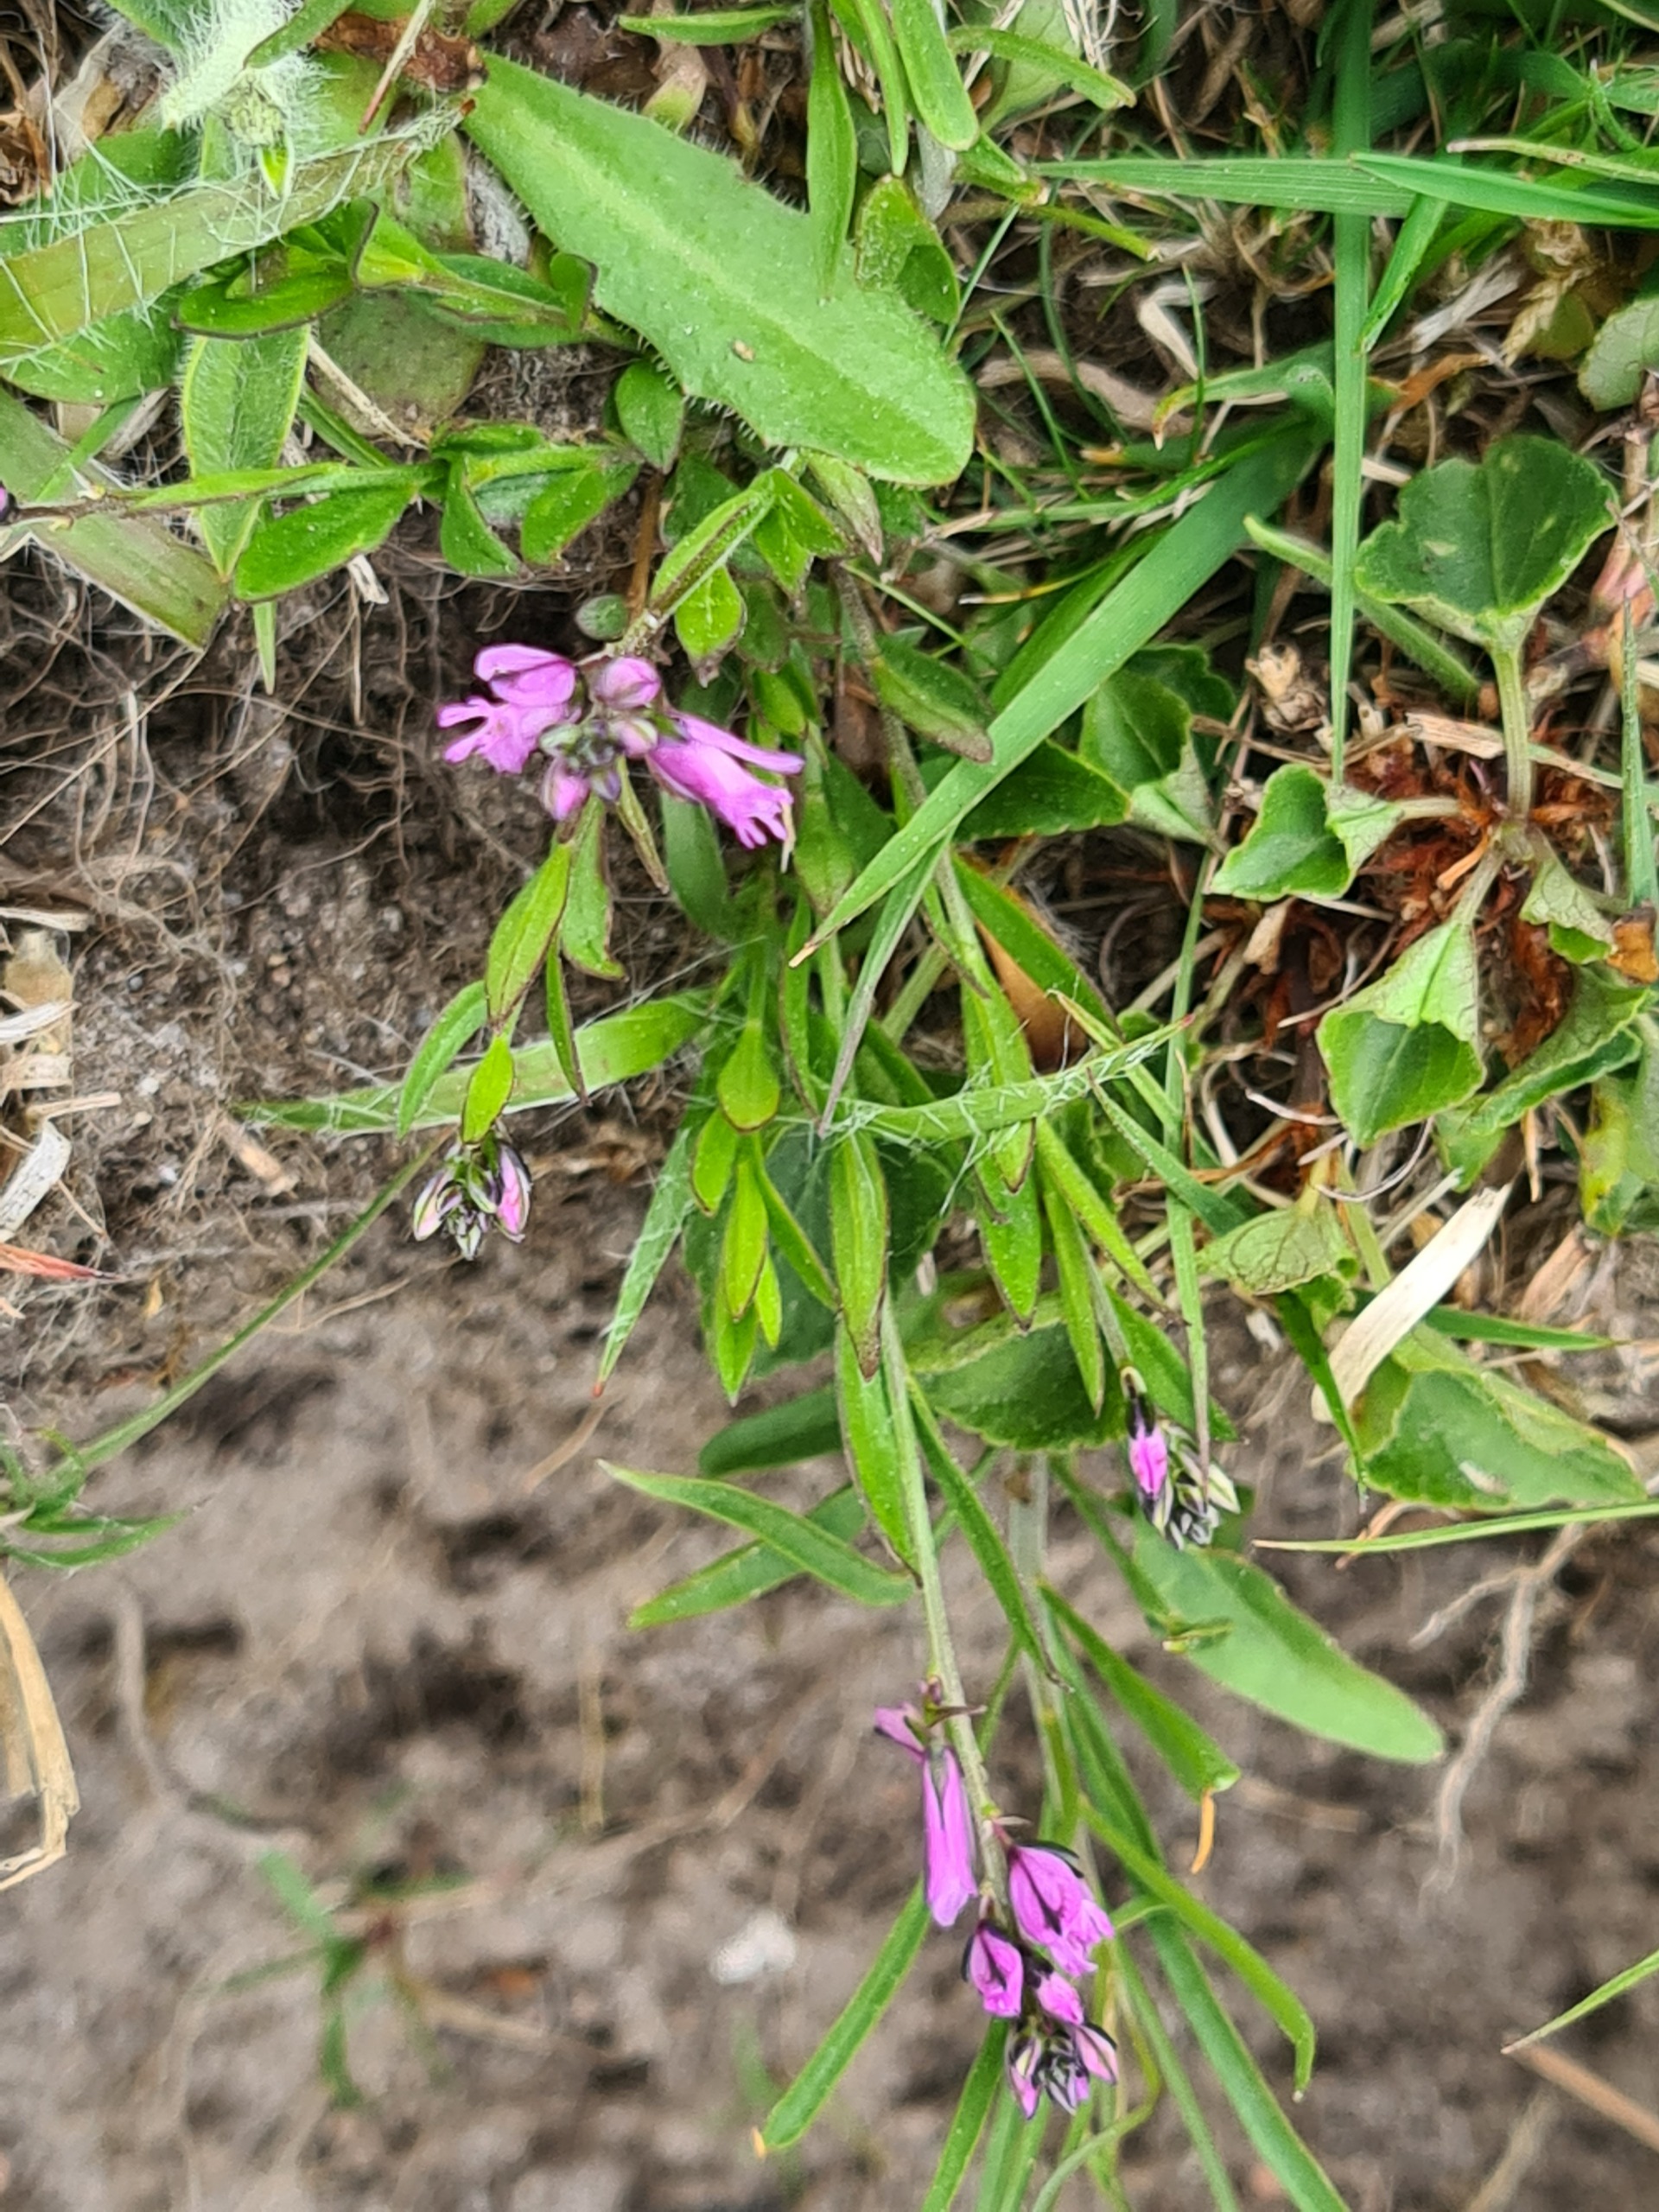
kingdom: Plantae
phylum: Tracheophyta
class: Magnoliopsida
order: Fabales
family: Polygalaceae
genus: Polygala
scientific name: Polygala vulgaris
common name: Almindelig mælkeurt
